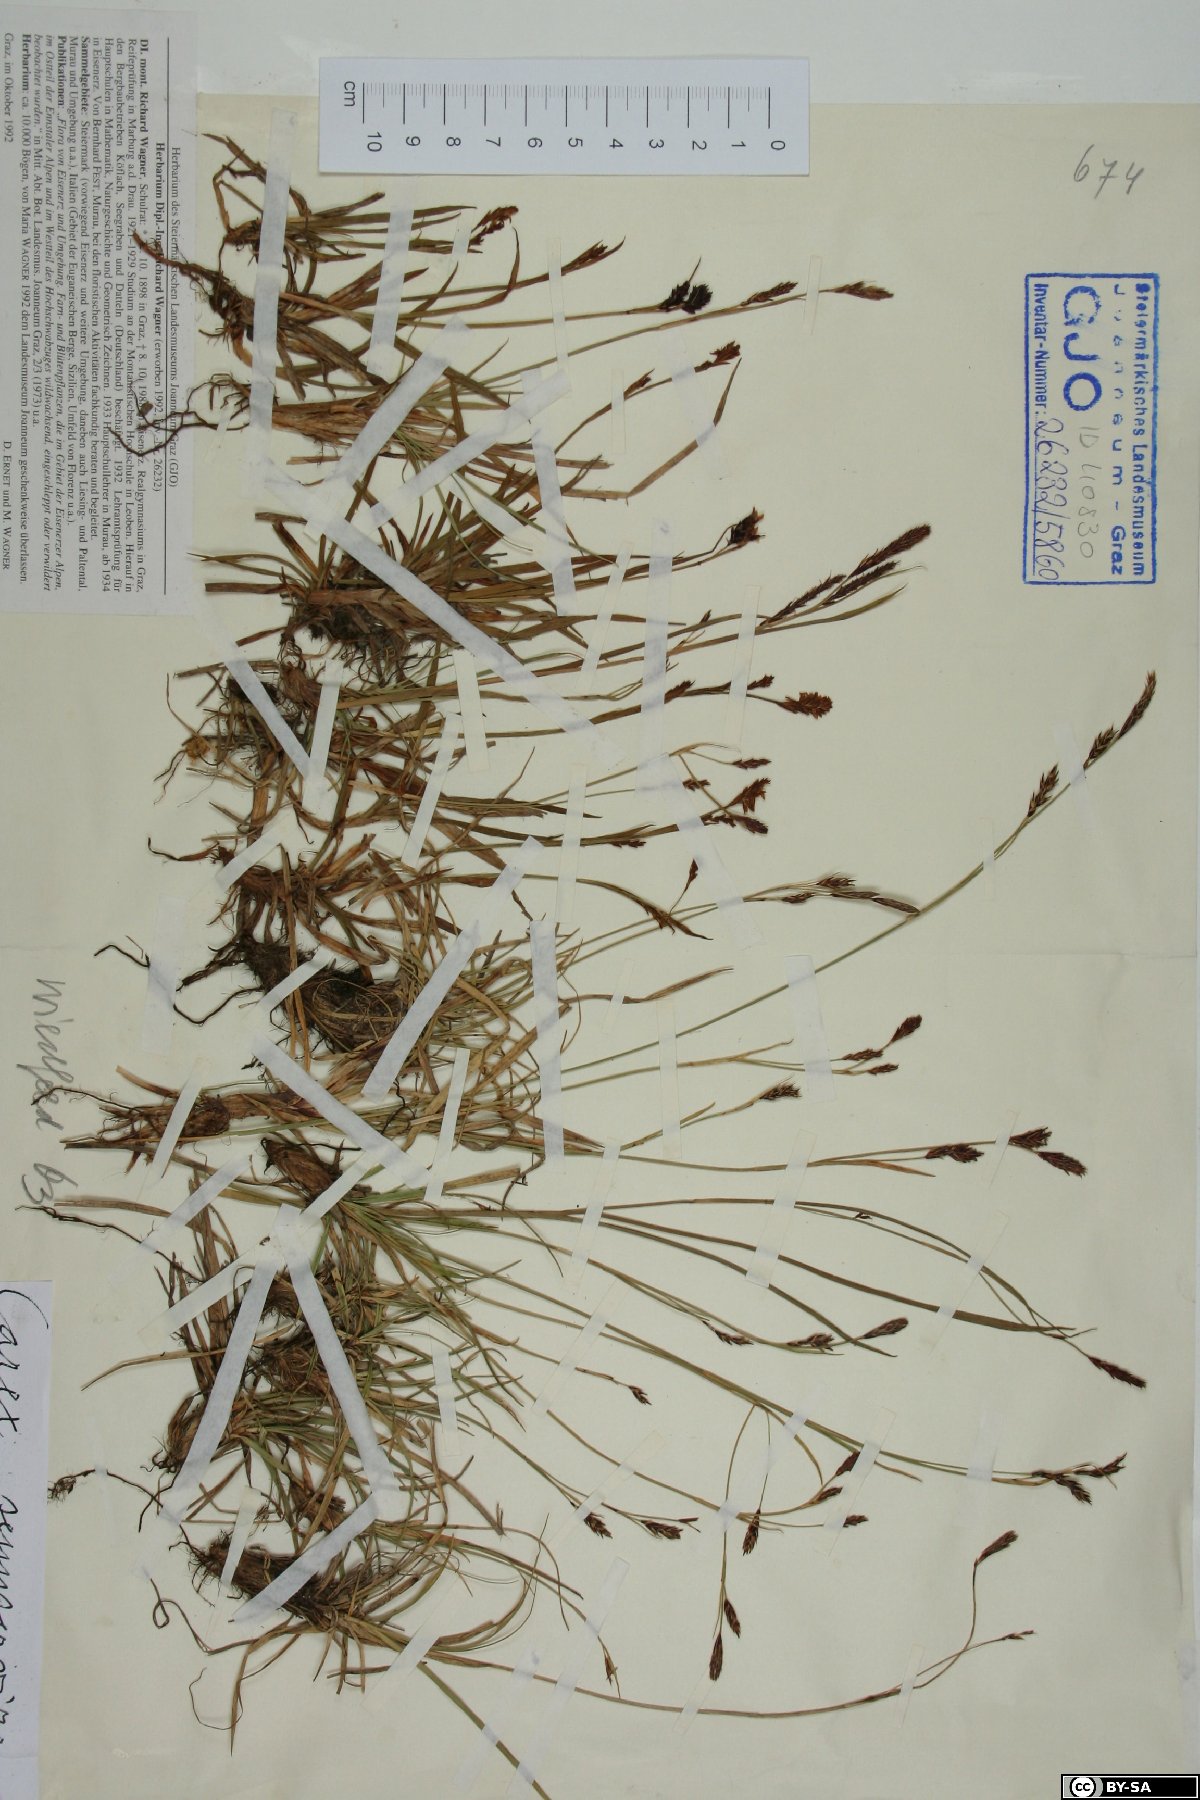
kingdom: Plantae
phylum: Tracheophyta
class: Liliopsida
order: Poales
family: Cyperaceae
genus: Carex
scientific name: Carex sempervirens
